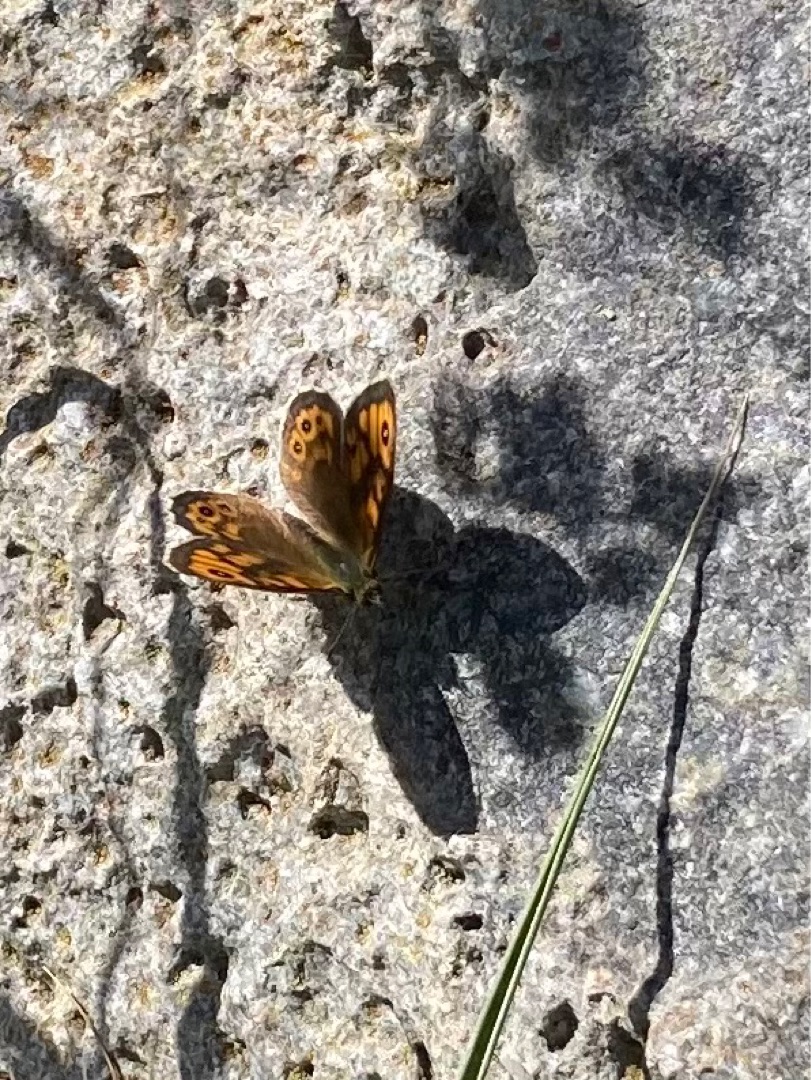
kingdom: Animalia
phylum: Arthropoda
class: Insecta
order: Lepidoptera
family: Nymphalidae
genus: Pararge
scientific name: Pararge Lasiommata megera
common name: Vejrandøje
